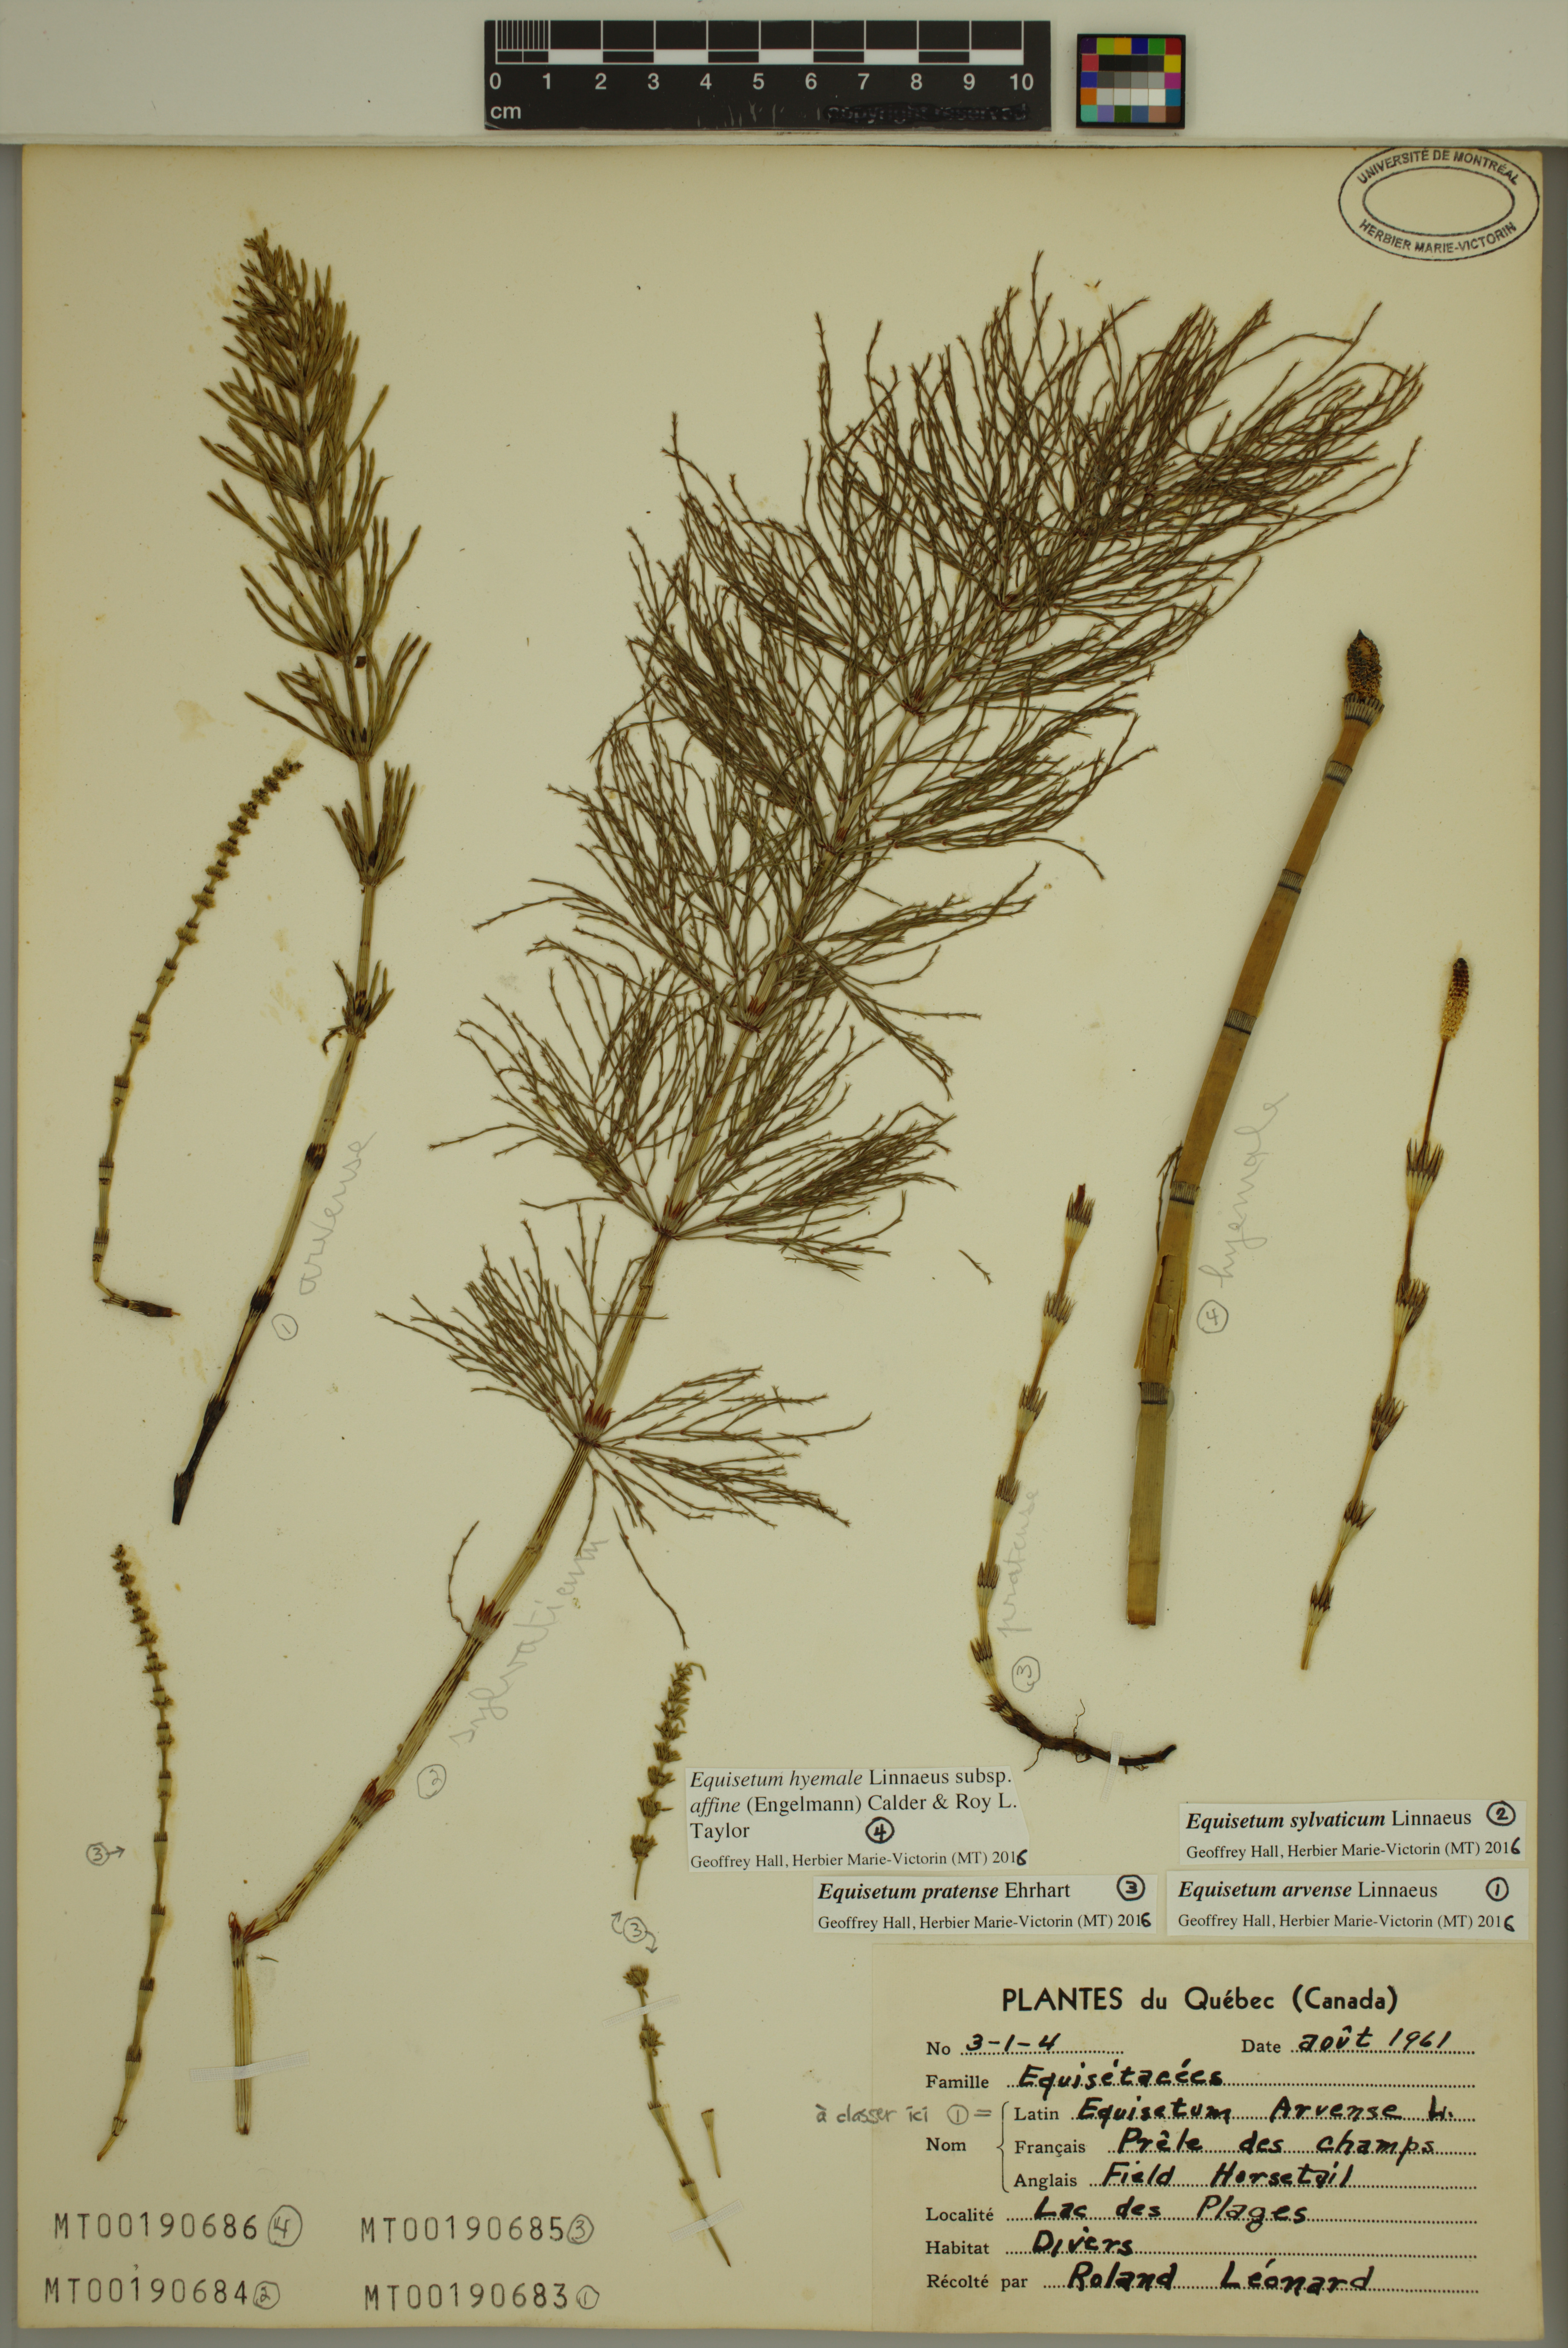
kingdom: Plantae
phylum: Tracheophyta
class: Polypodiopsida
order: Equisetales
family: Equisetaceae
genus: Equisetum
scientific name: Equisetum praealtum
